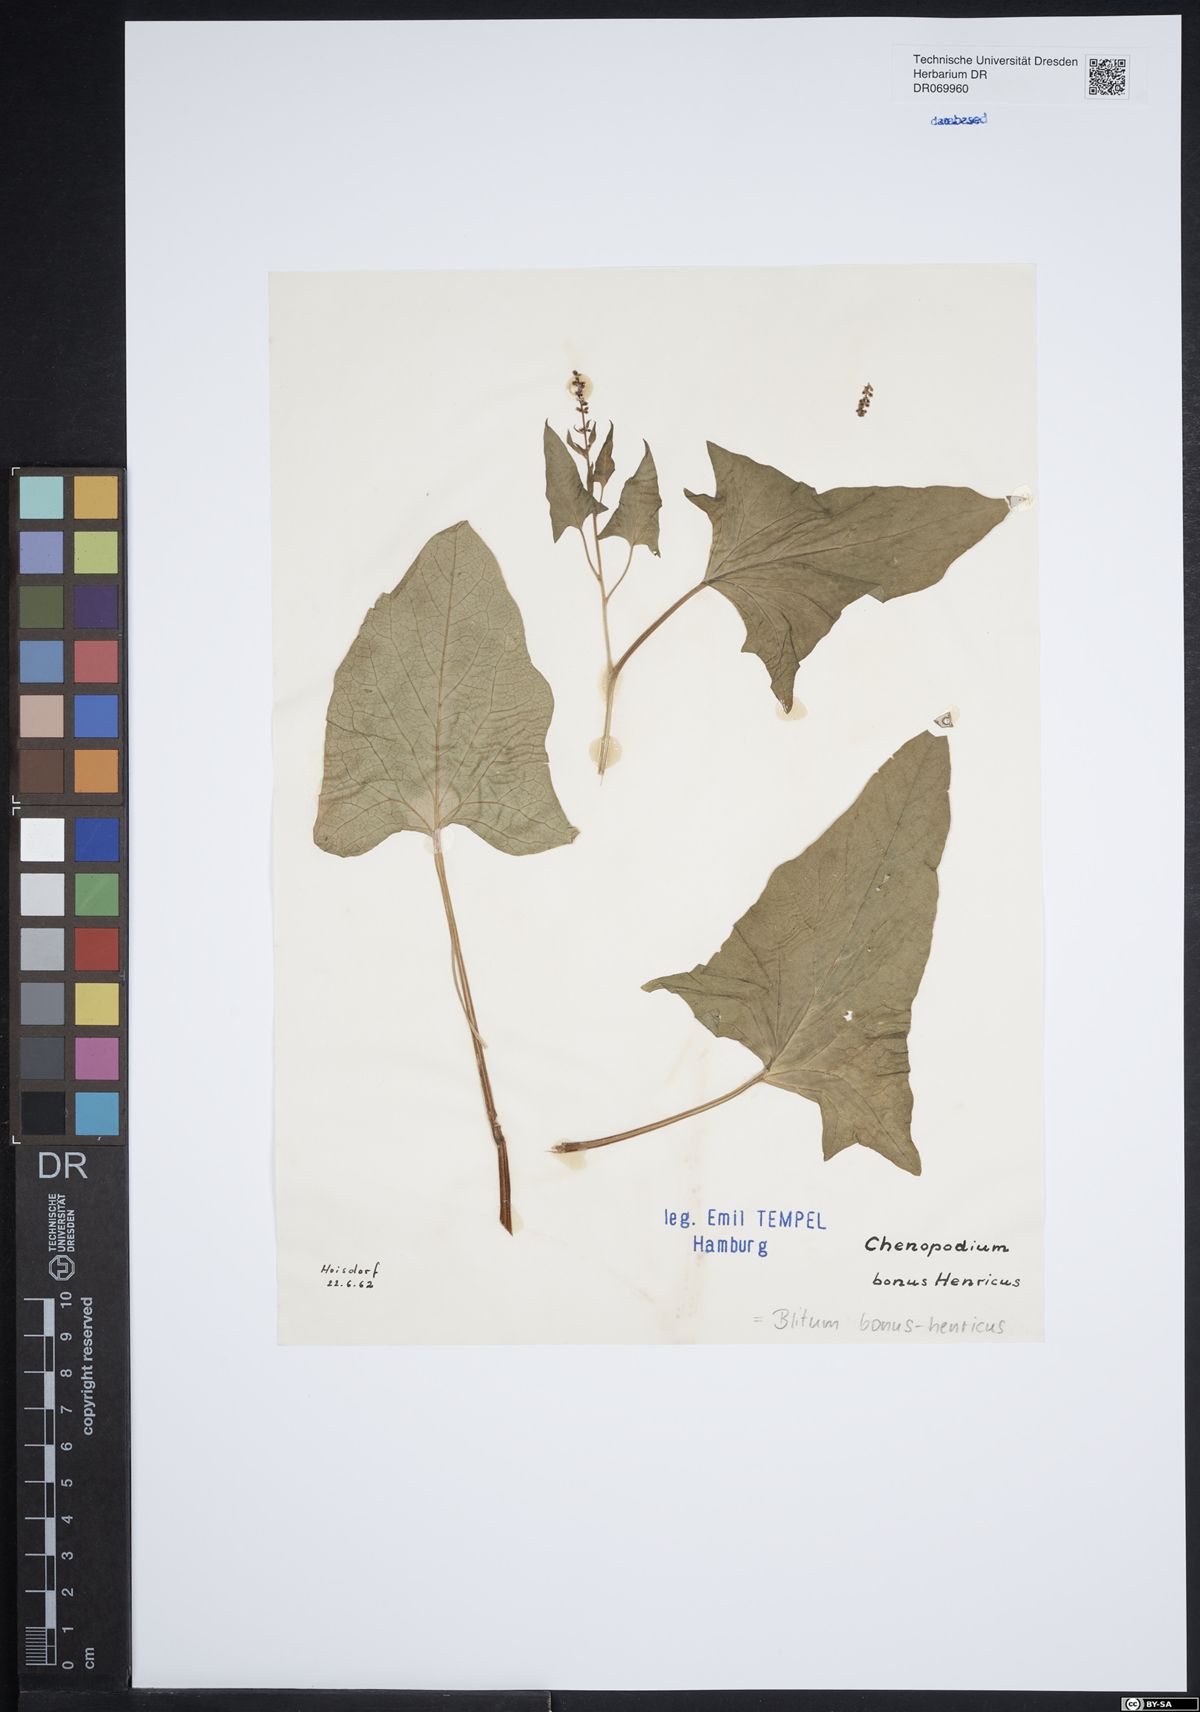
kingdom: Plantae
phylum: Tracheophyta
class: Magnoliopsida
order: Caryophyllales
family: Amaranthaceae
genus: Blitum
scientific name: Blitum bonus-henricus
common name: Good king henry
